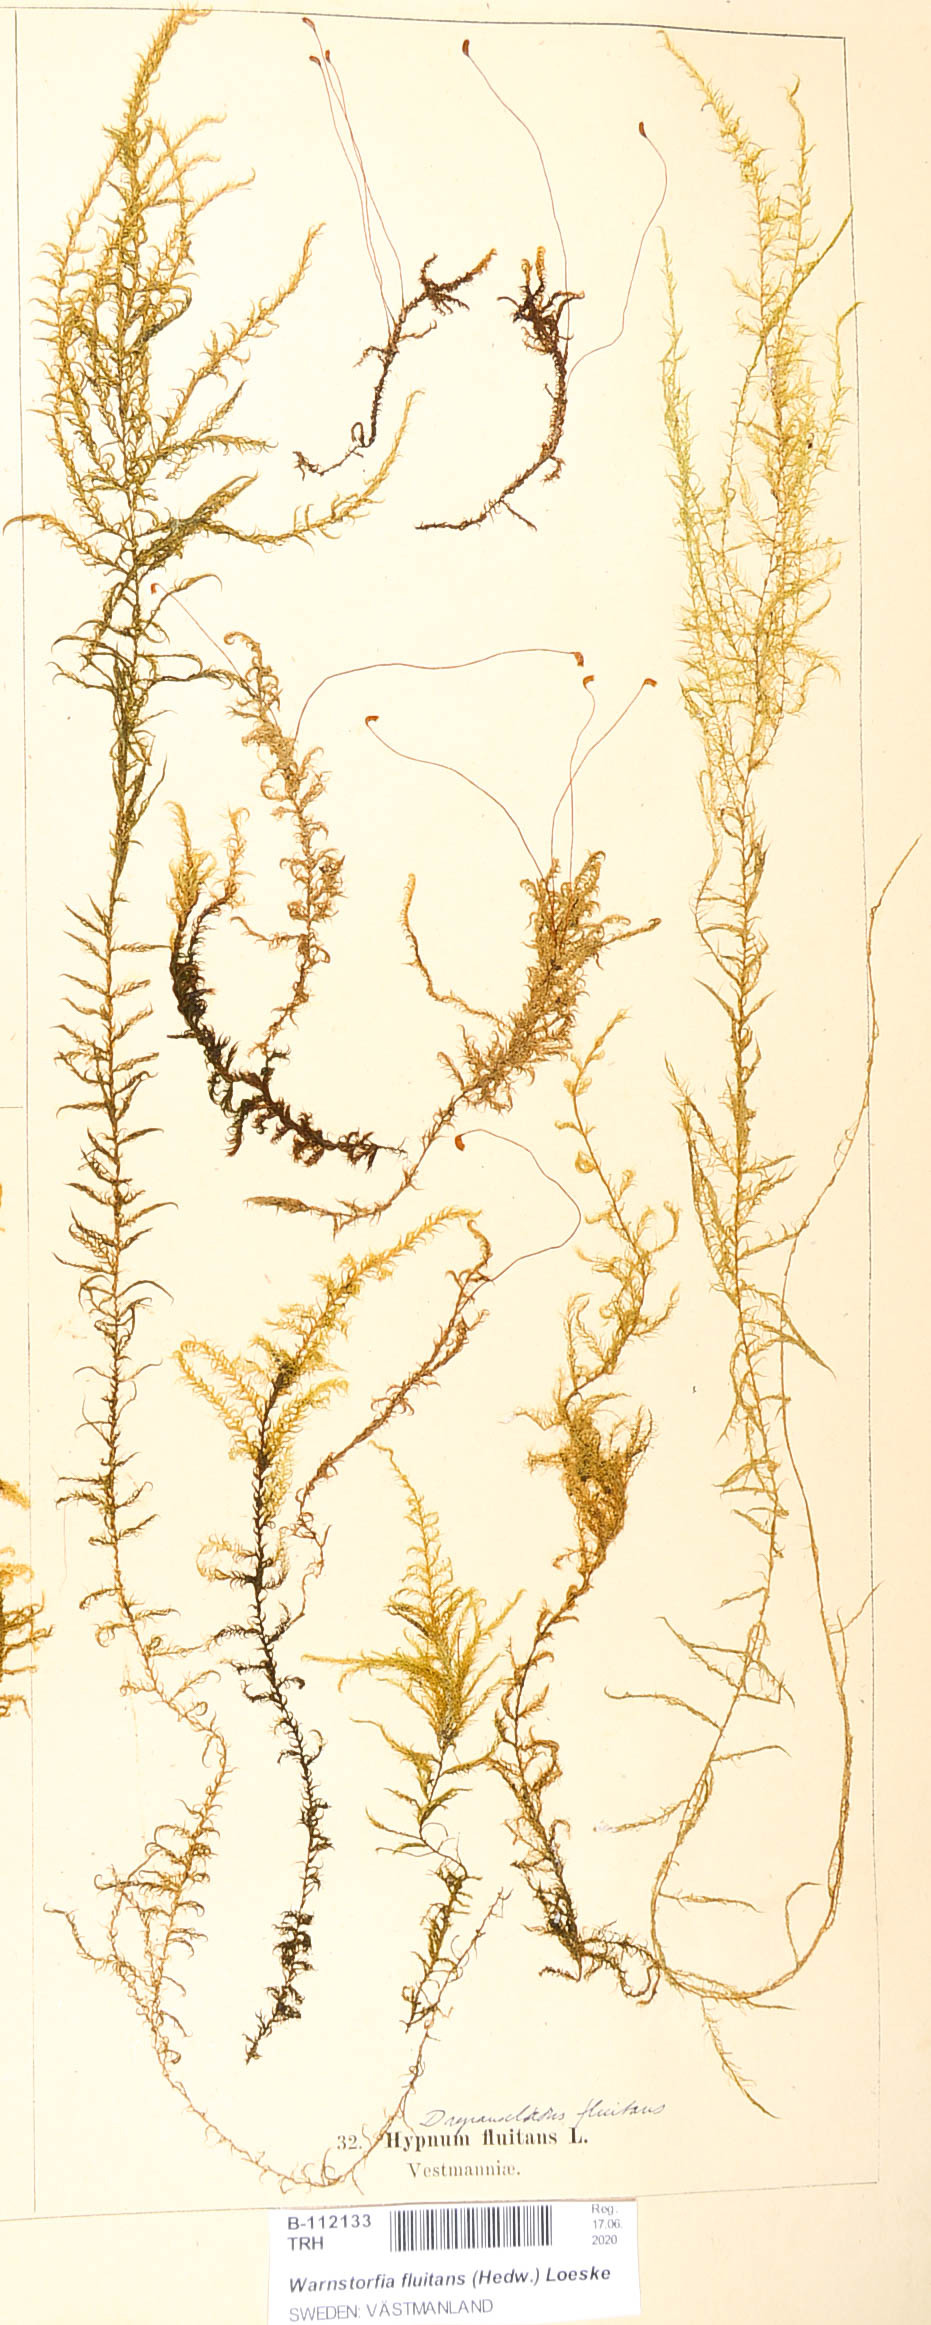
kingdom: Plantae
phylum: Bryophyta
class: Bryopsida
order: Hypnales
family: Calliergonaceae
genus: Warnstorfia
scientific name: Warnstorfia fluitans
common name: Floating hook moss
